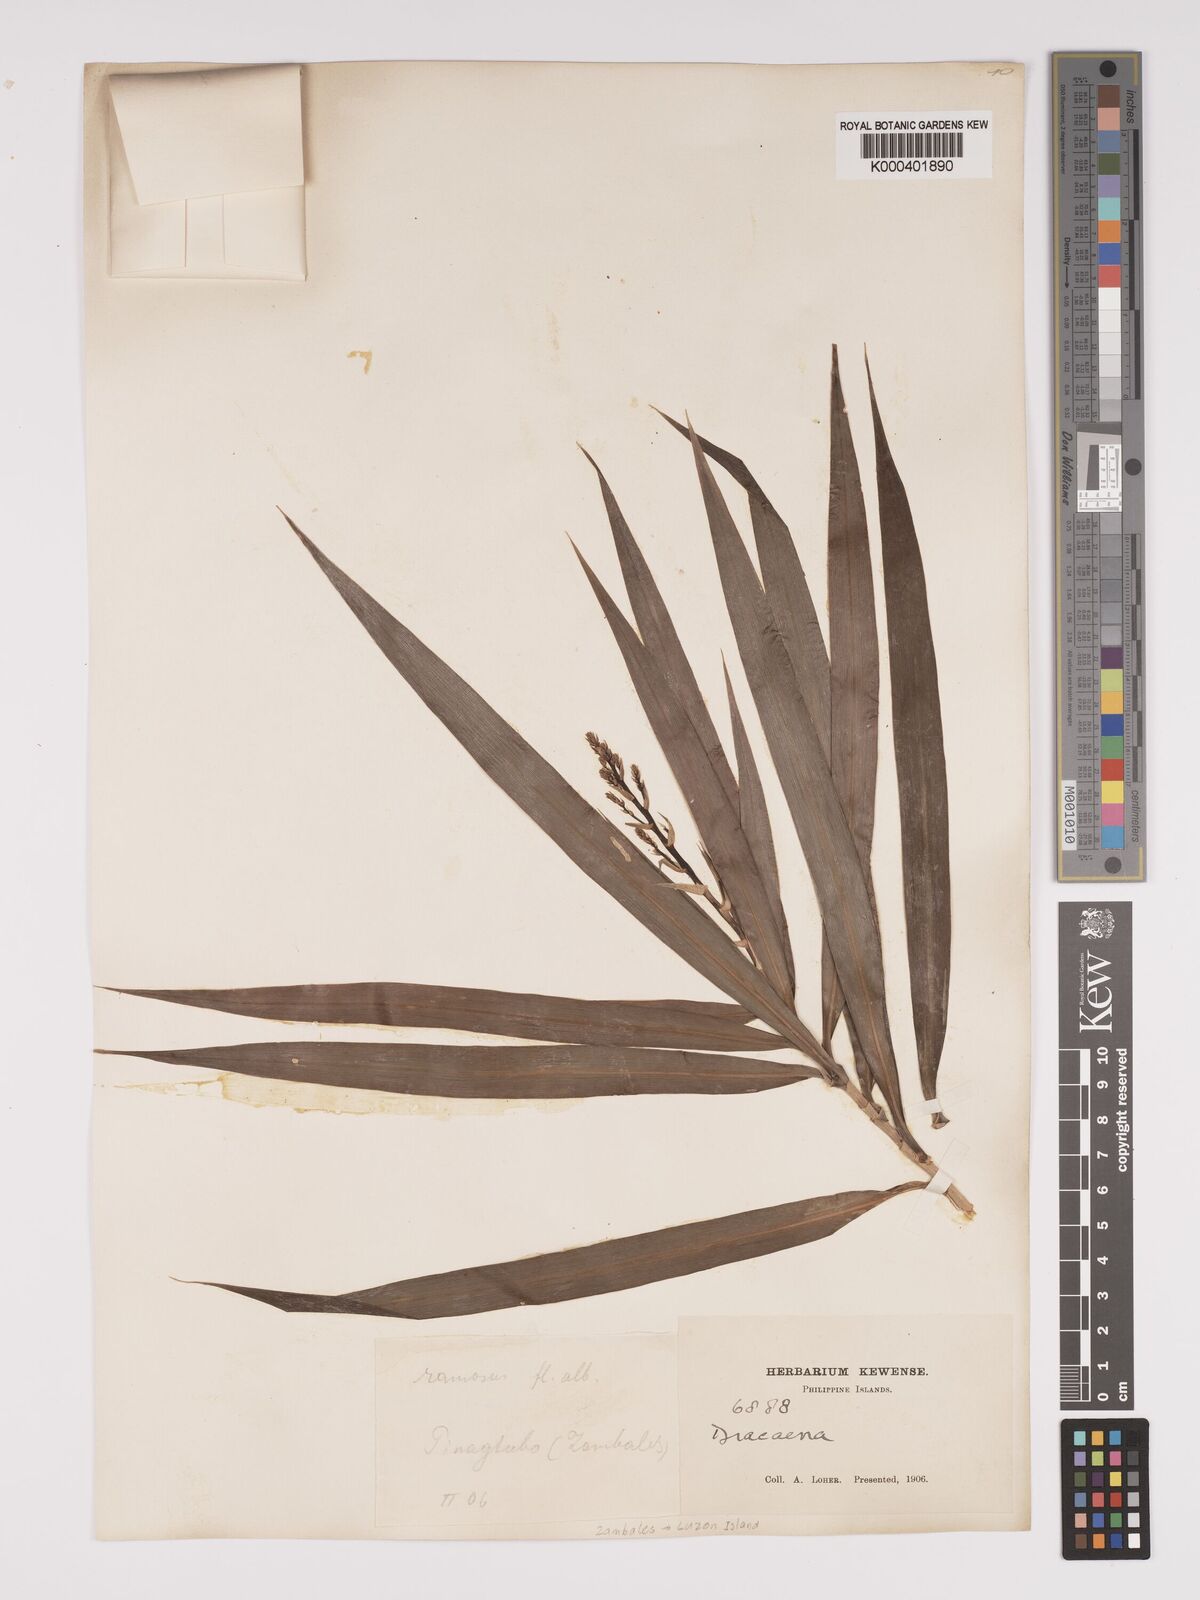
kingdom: Plantae
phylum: Tracheophyta
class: Liliopsida
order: Asparagales
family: Asparagaceae
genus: Dracaena
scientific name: Dracaena angustifolia
